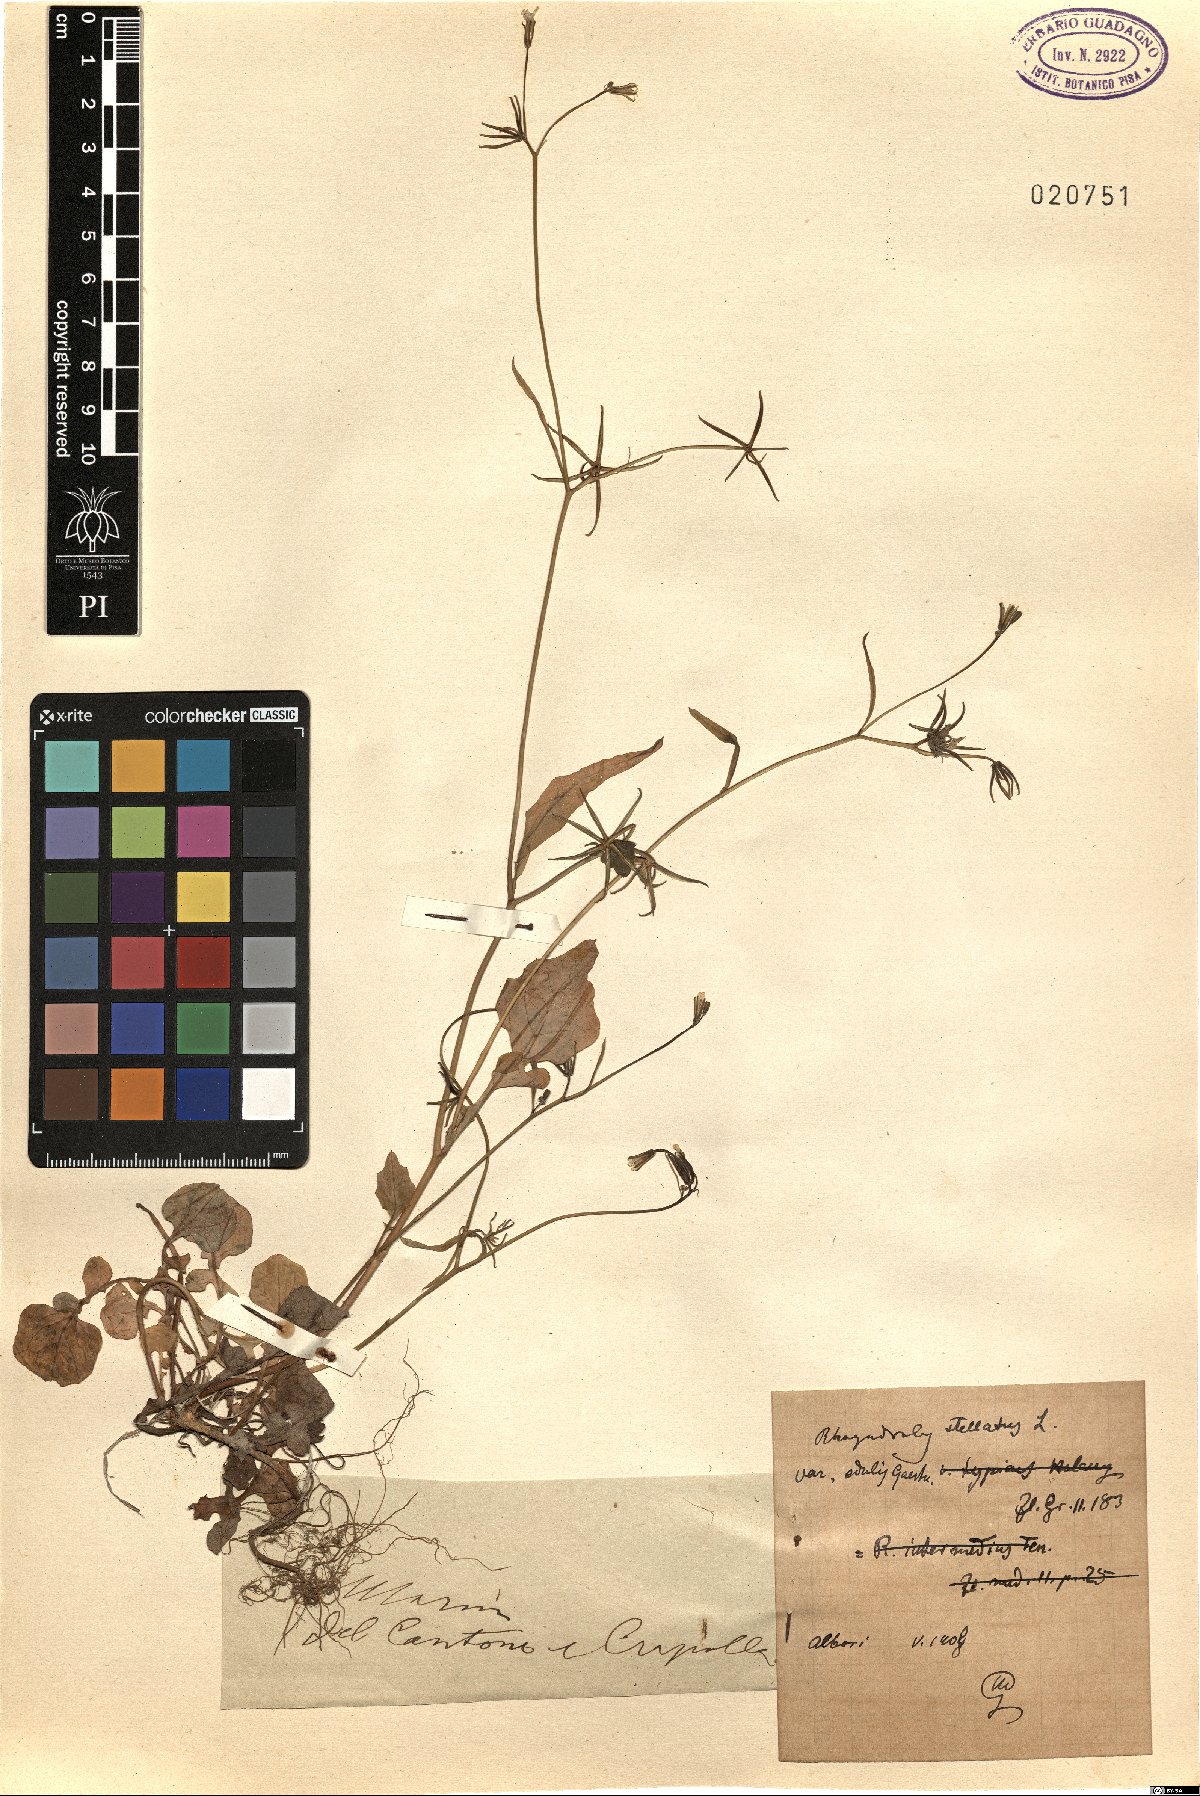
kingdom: Plantae
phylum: Tracheophyta
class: Magnoliopsida
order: Asterales
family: Asteraceae
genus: Rhagadiolus
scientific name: Rhagadiolus edulis
